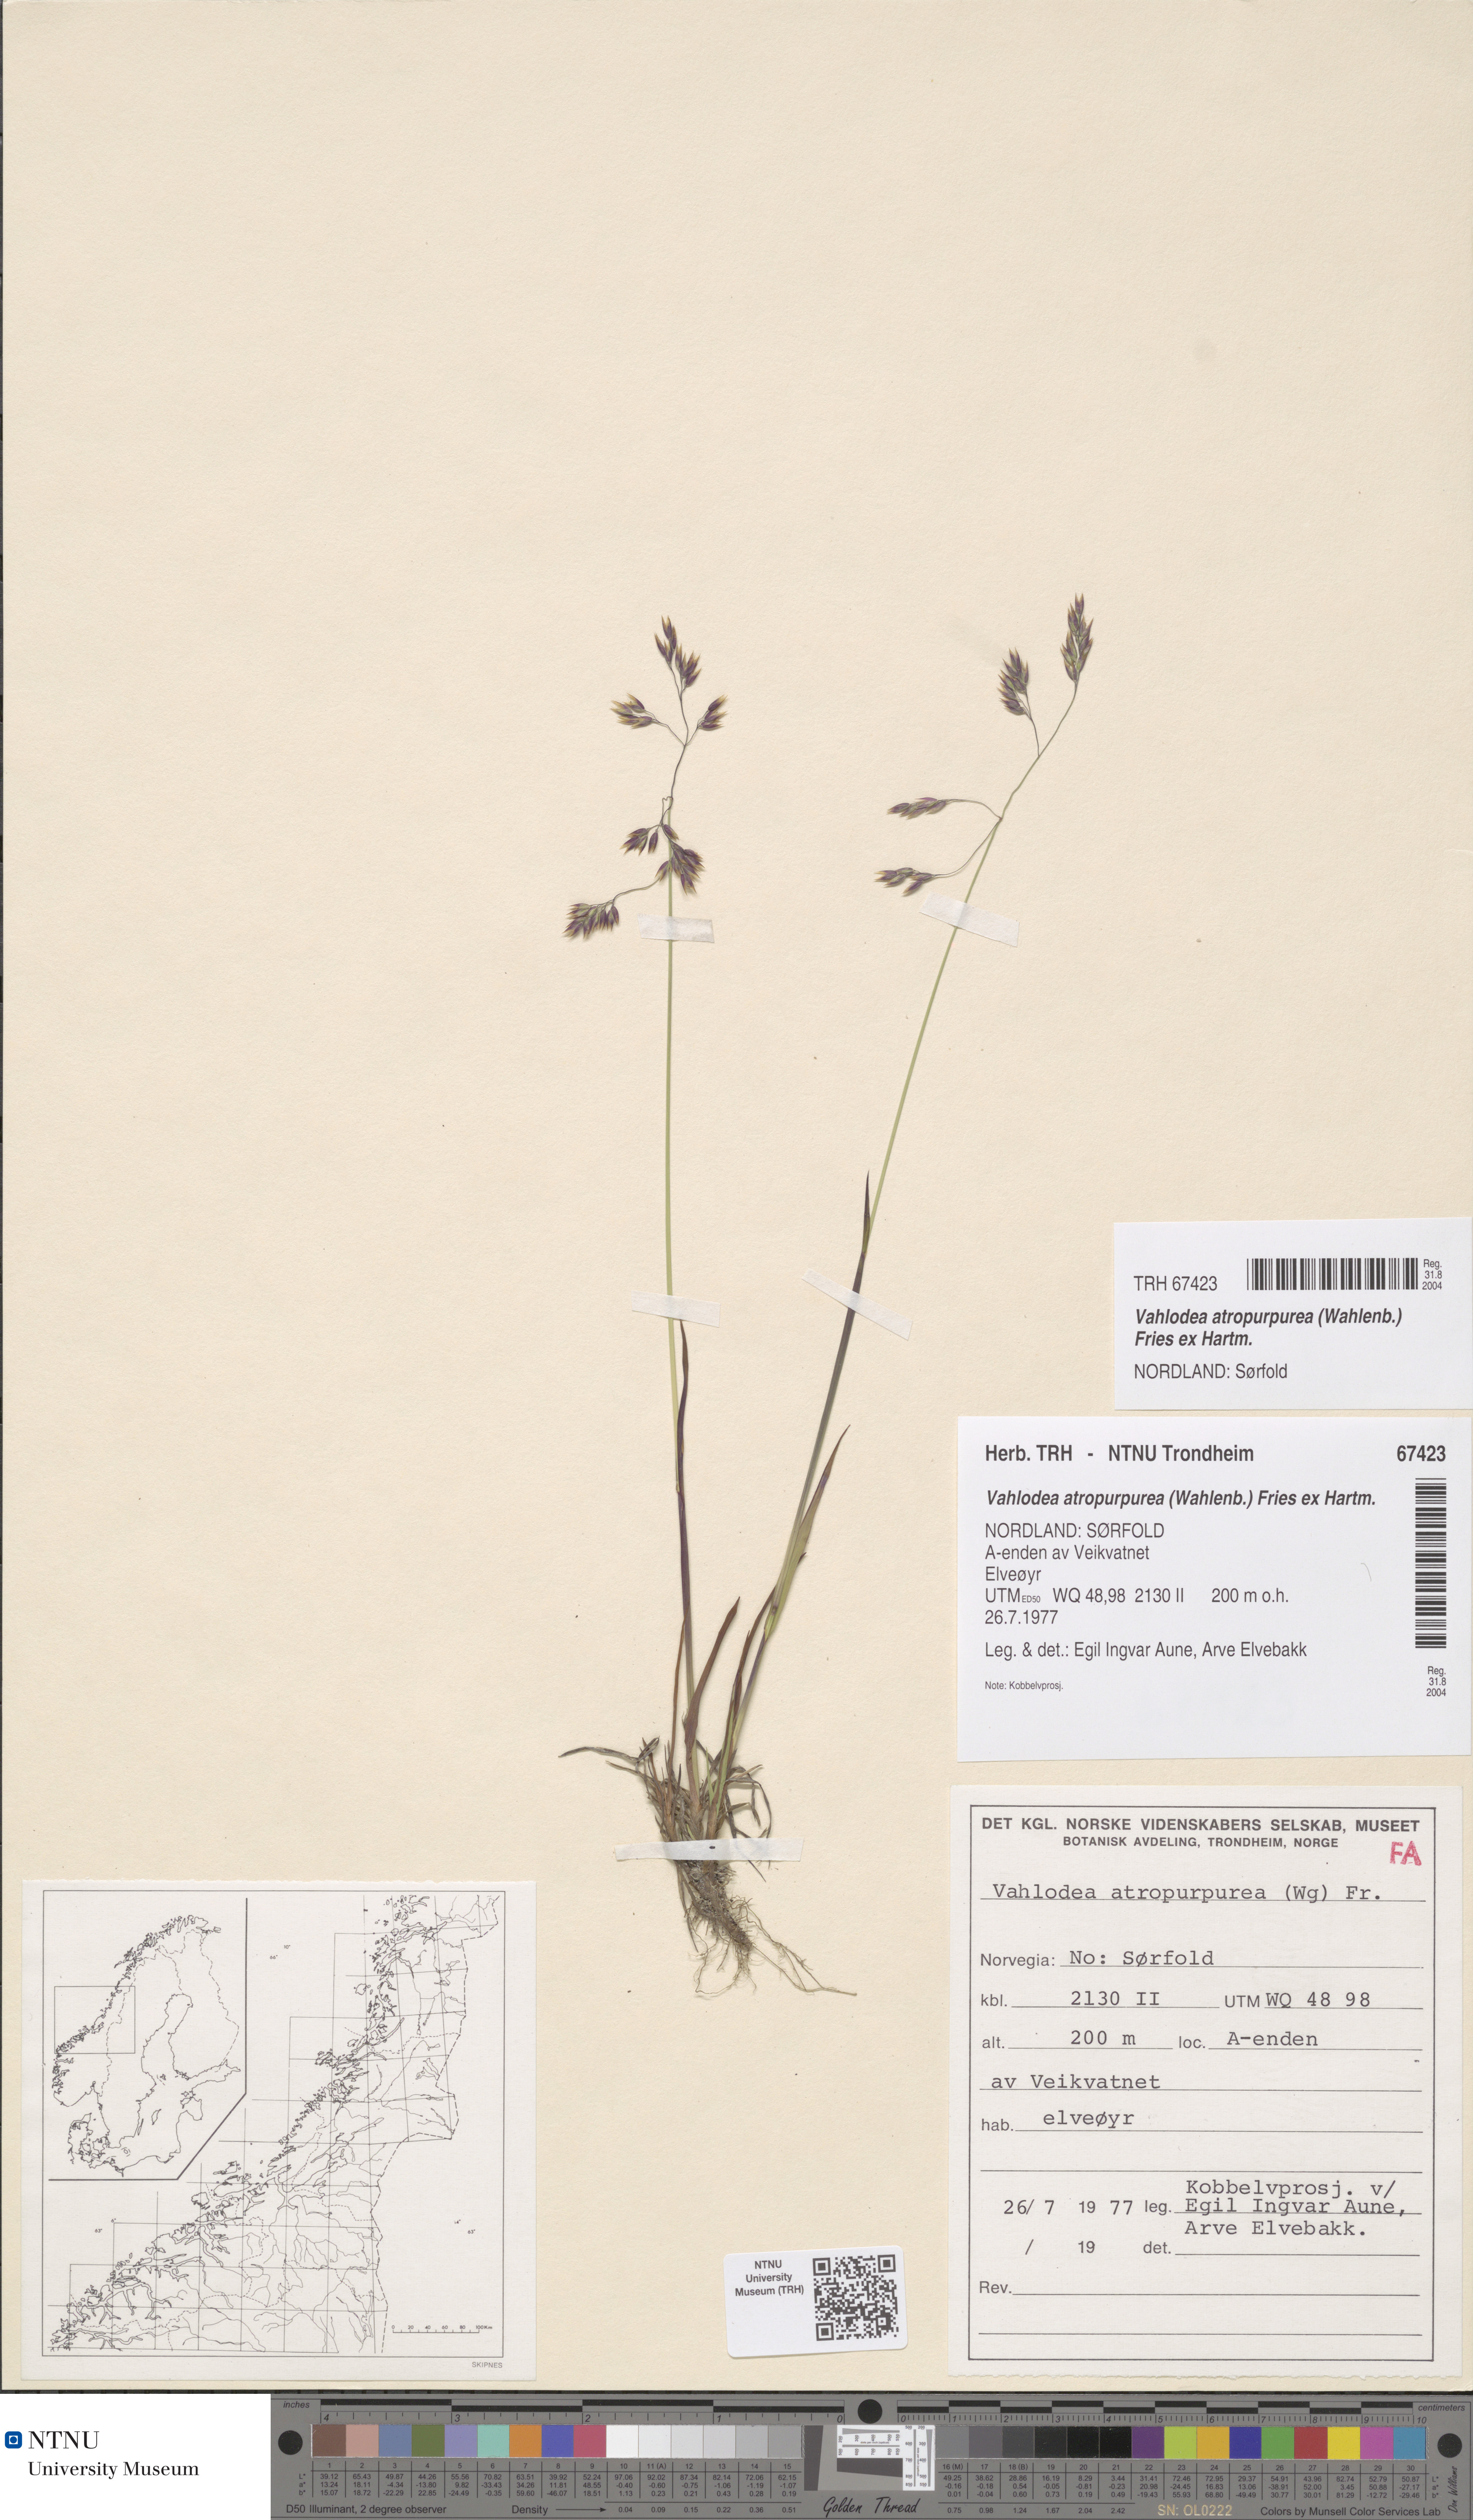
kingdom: Plantae
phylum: Tracheophyta
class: Liliopsida
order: Poales
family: Poaceae
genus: Vahlodea
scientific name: Vahlodea atropurpurea
